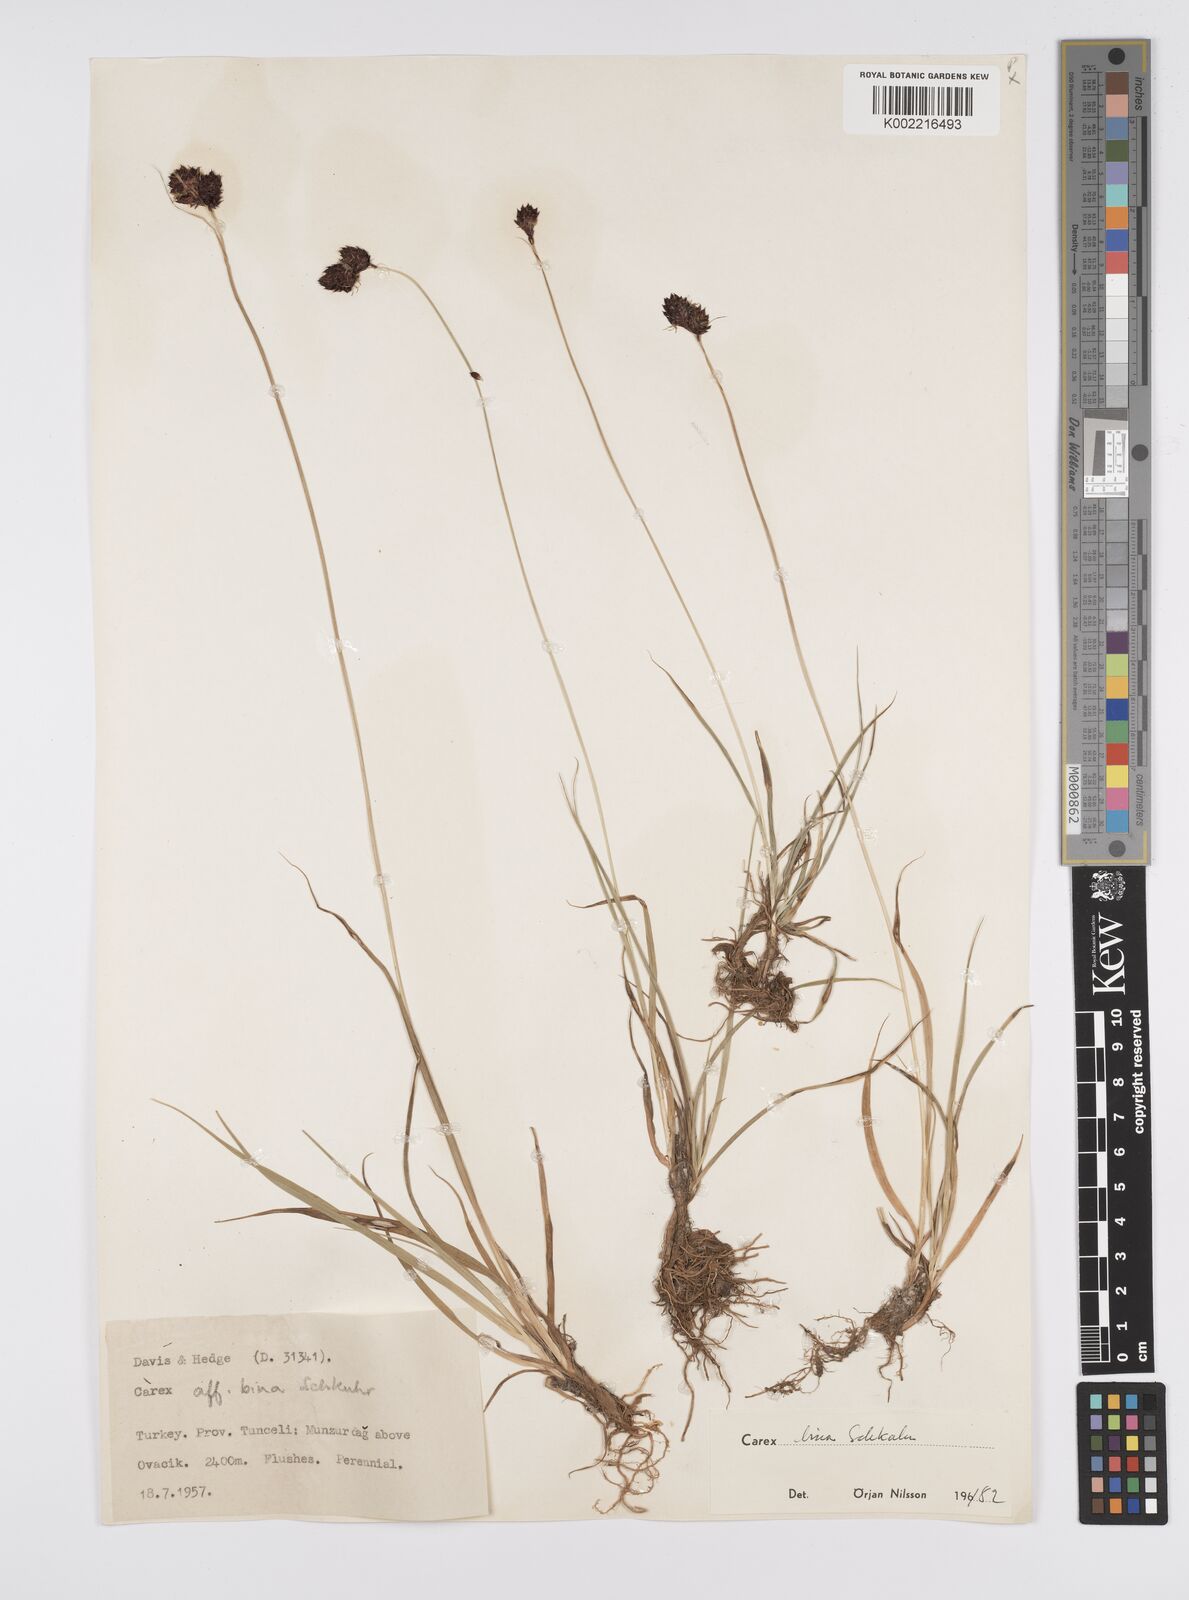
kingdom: Plantae
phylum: Tracheophyta
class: Liliopsida
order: Poales
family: Cyperaceae
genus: Carex
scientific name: Carex parviflora
